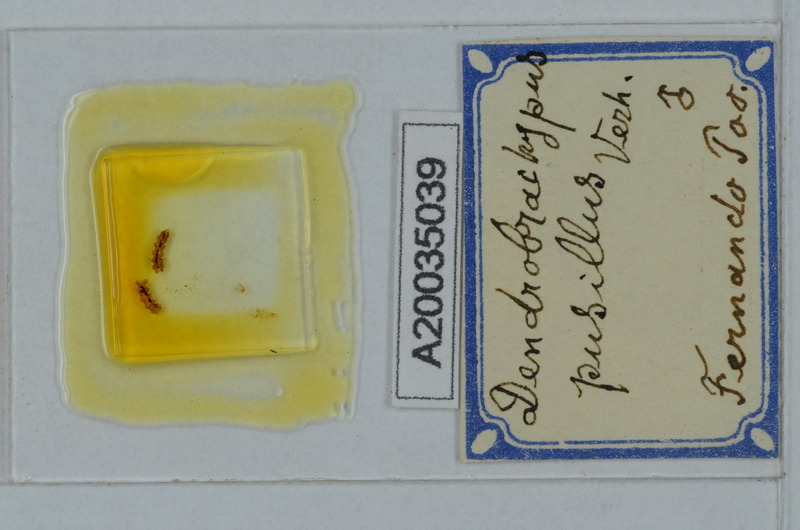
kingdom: Animalia
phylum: Arthropoda
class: Diplopoda
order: Polydesmida
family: Fuhrmannodesmidae
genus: Dendrobrachypus
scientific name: Dendrobrachypus pusillus
